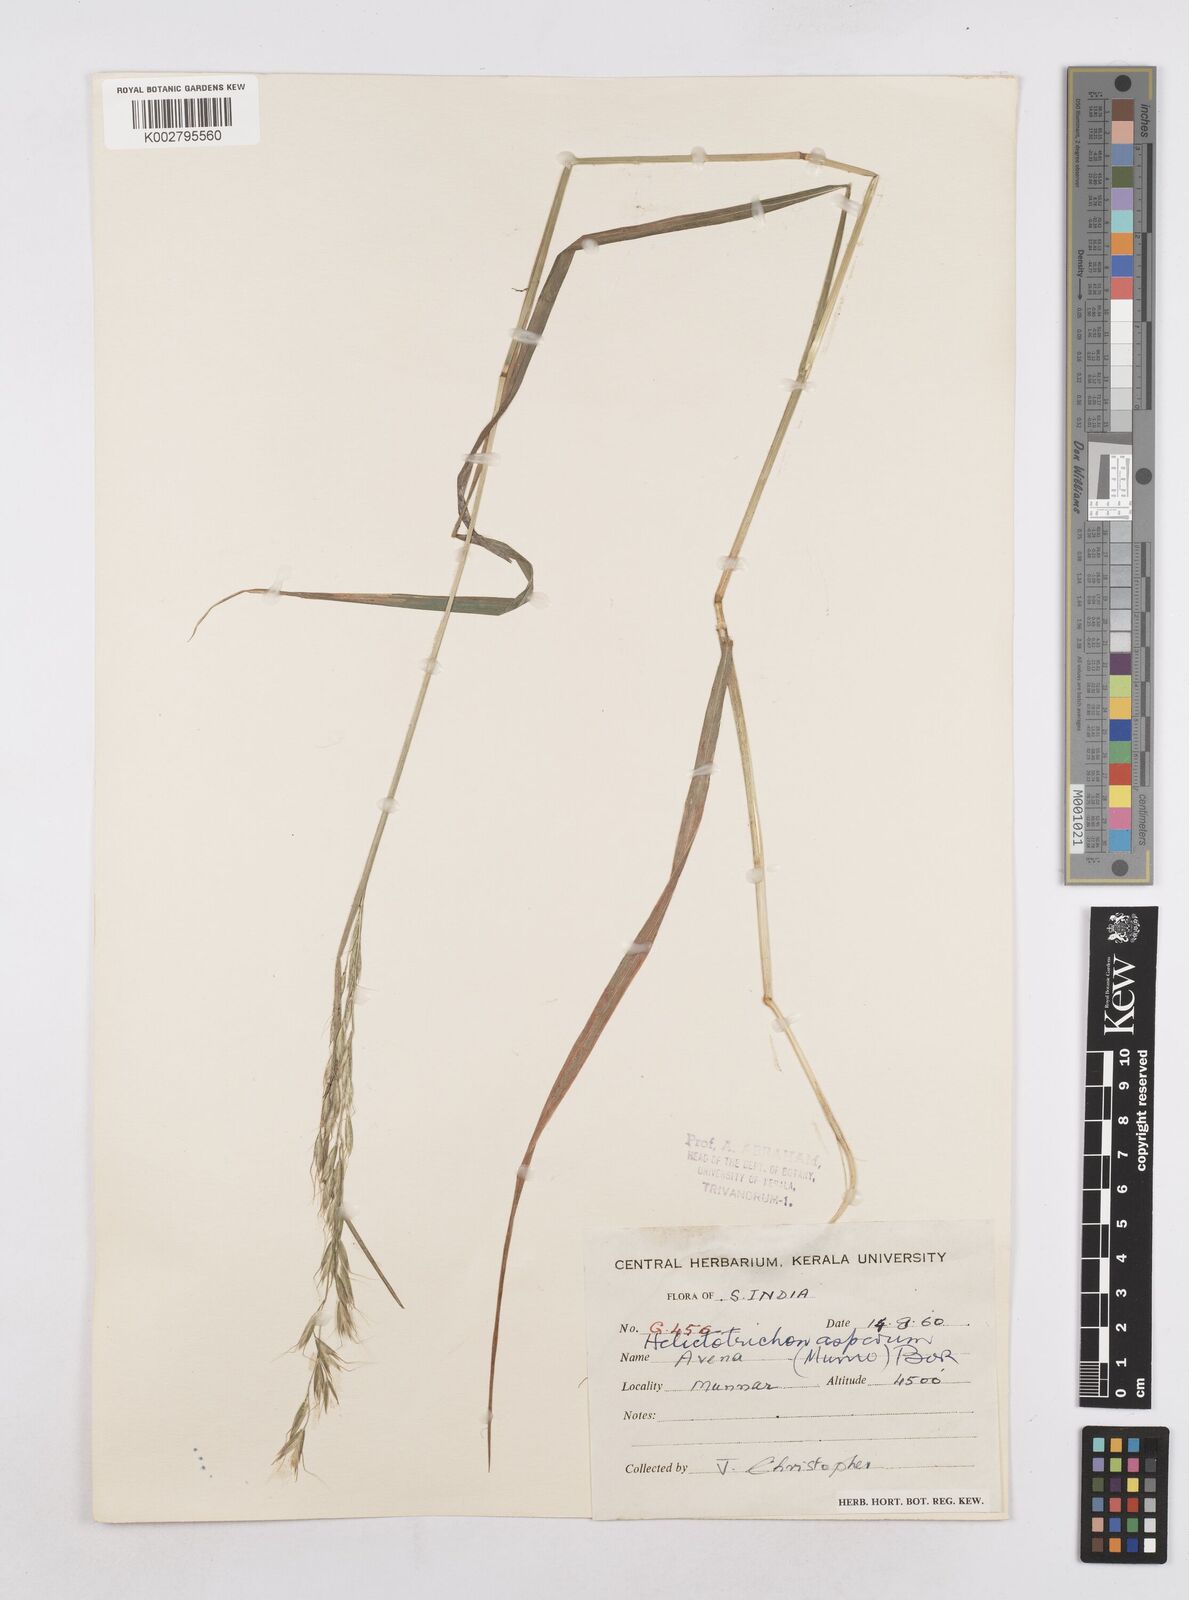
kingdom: Plantae
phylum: Tracheophyta
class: Liliopsida
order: Poales
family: Poaceae
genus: Trisetopsis
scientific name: Trisetopsis junghuhnii
